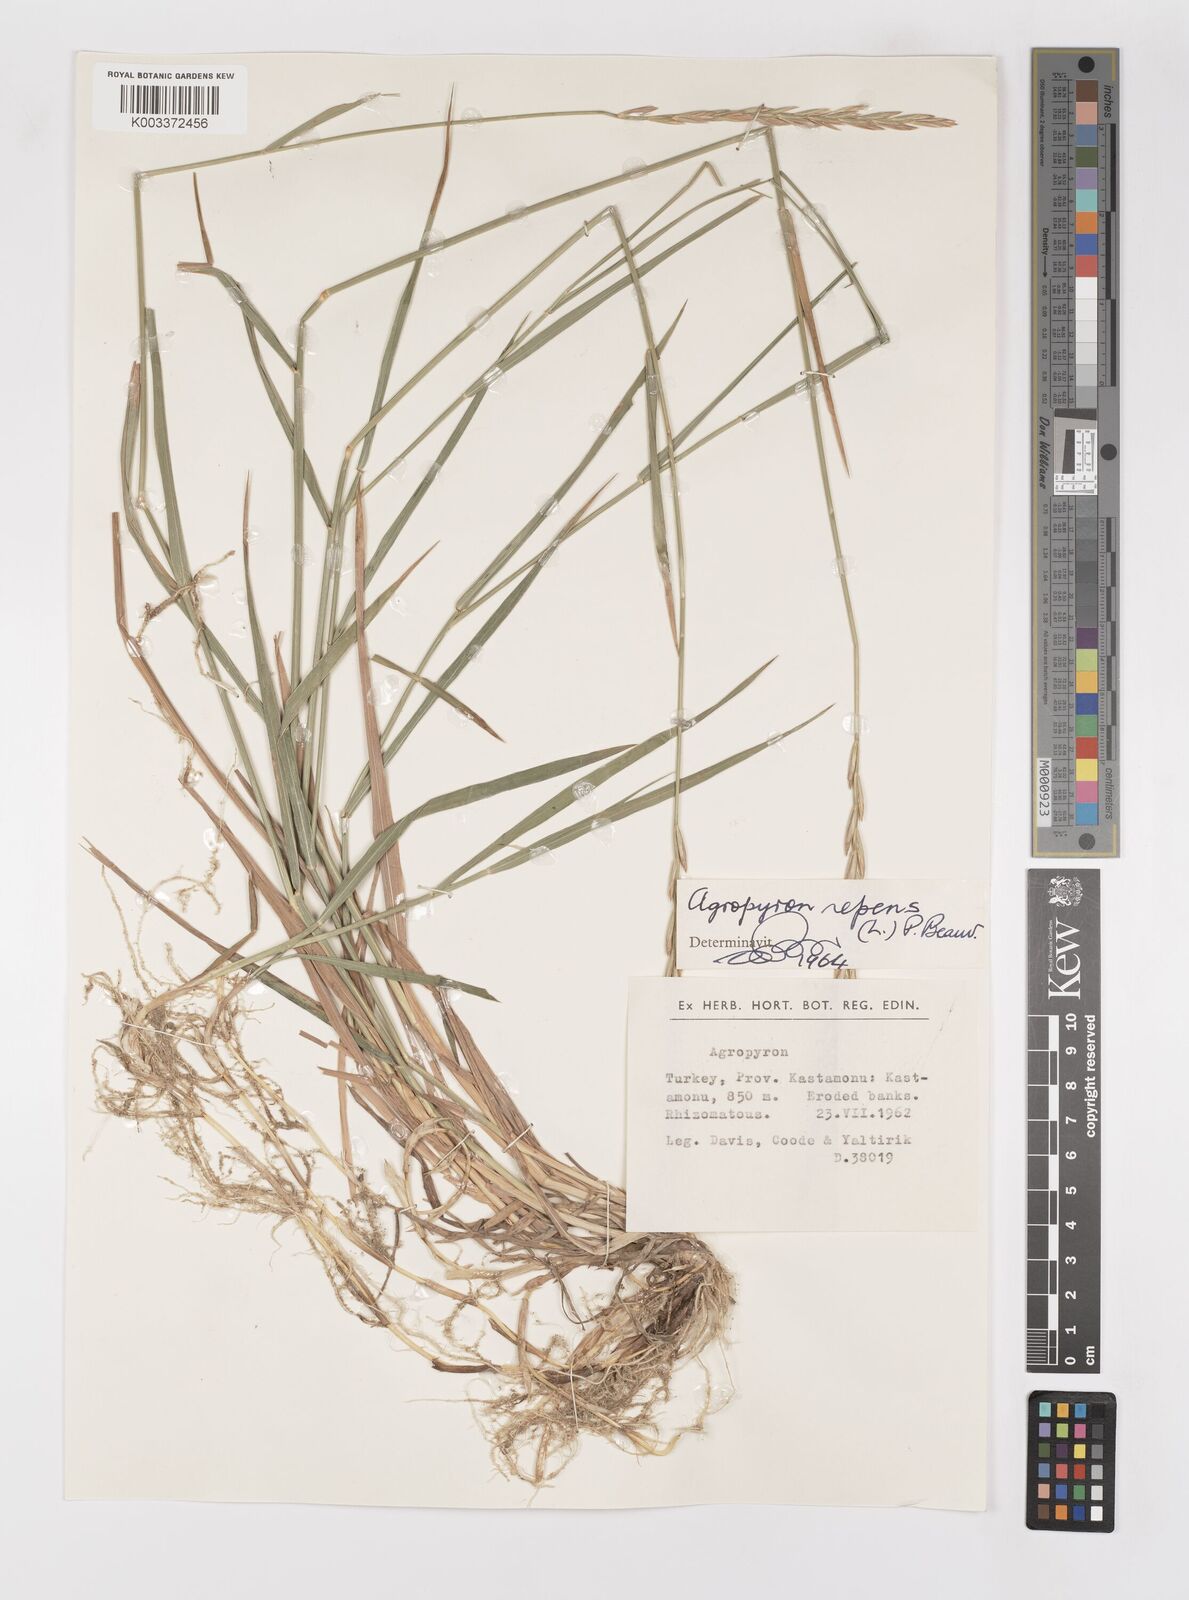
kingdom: Plantae
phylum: Tracheophyta
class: Liliopsida
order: Poales
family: Poaceae
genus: Elymus
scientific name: Elymus repens
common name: Quackgrass
